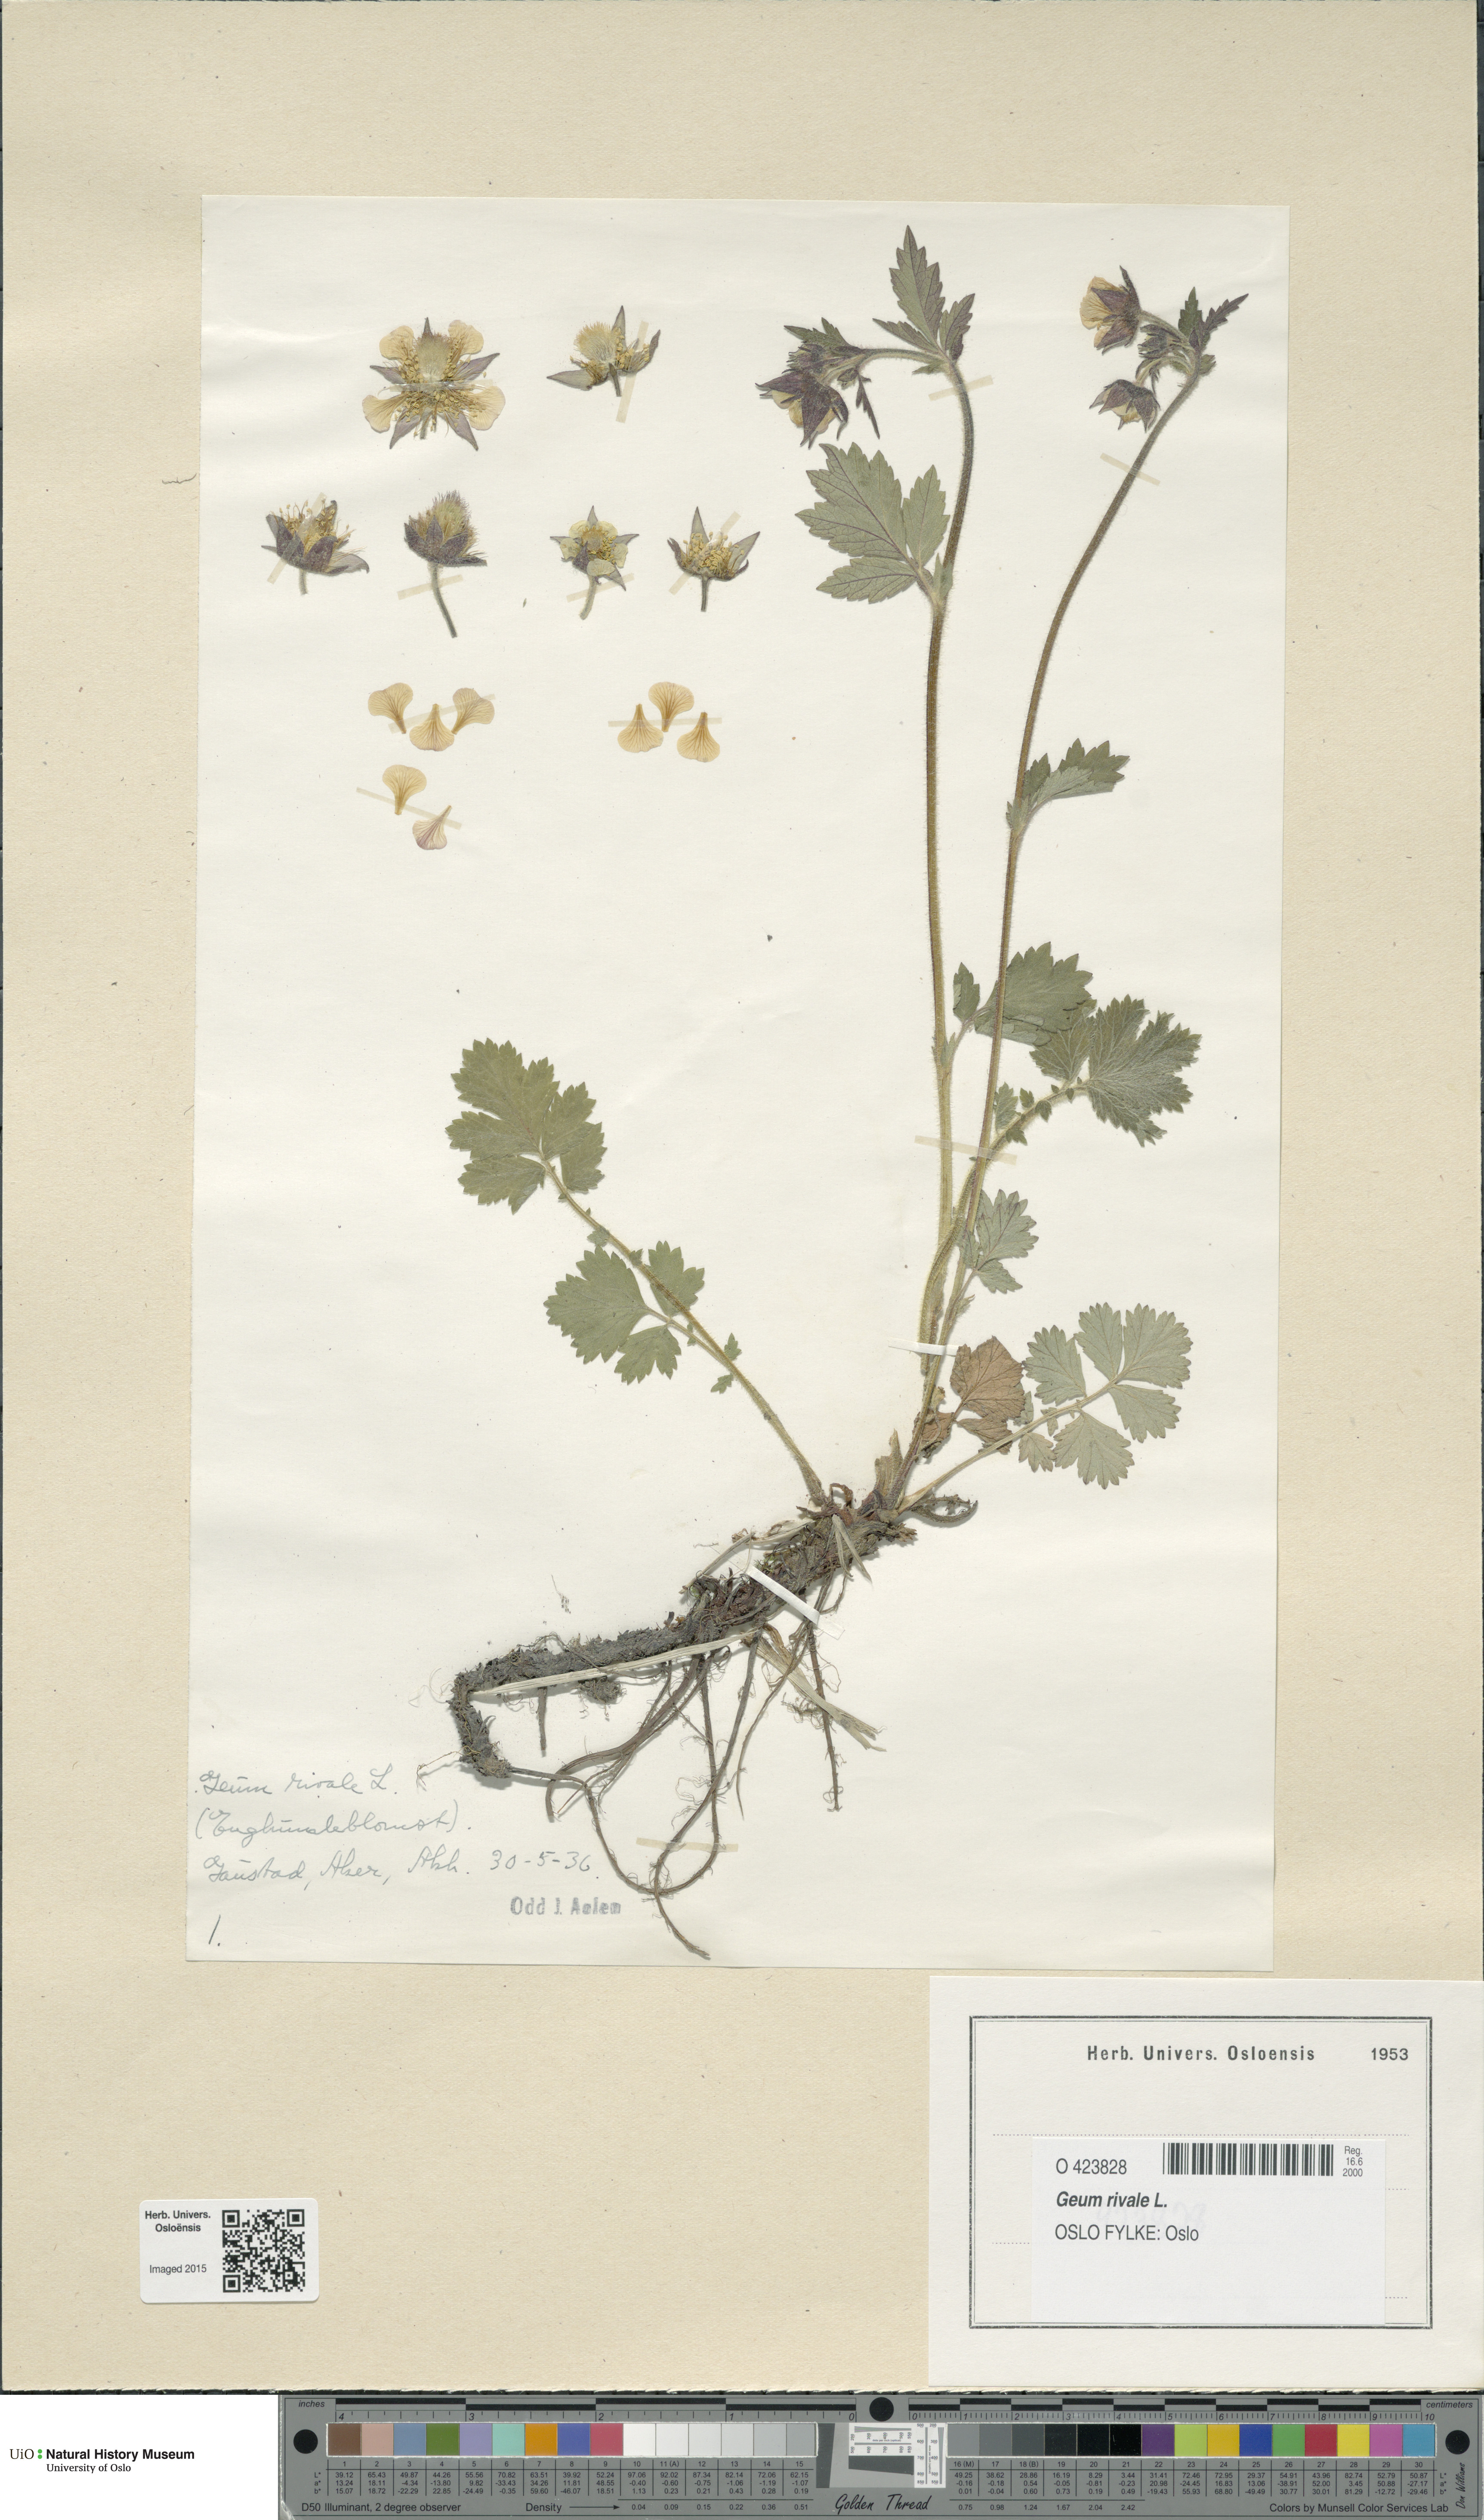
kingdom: Plantae
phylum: Tracheophyta
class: Magnoliopsida
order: Rosales
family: Rosaceae
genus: Geum
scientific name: Geum rivale
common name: Water avens
